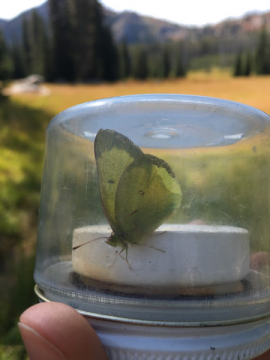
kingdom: Animalia
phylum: Arthropoda
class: Insecta
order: Lepidoptera
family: Pieridae
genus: Colias
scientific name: Colias philodice
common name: Clouded Sulphur
